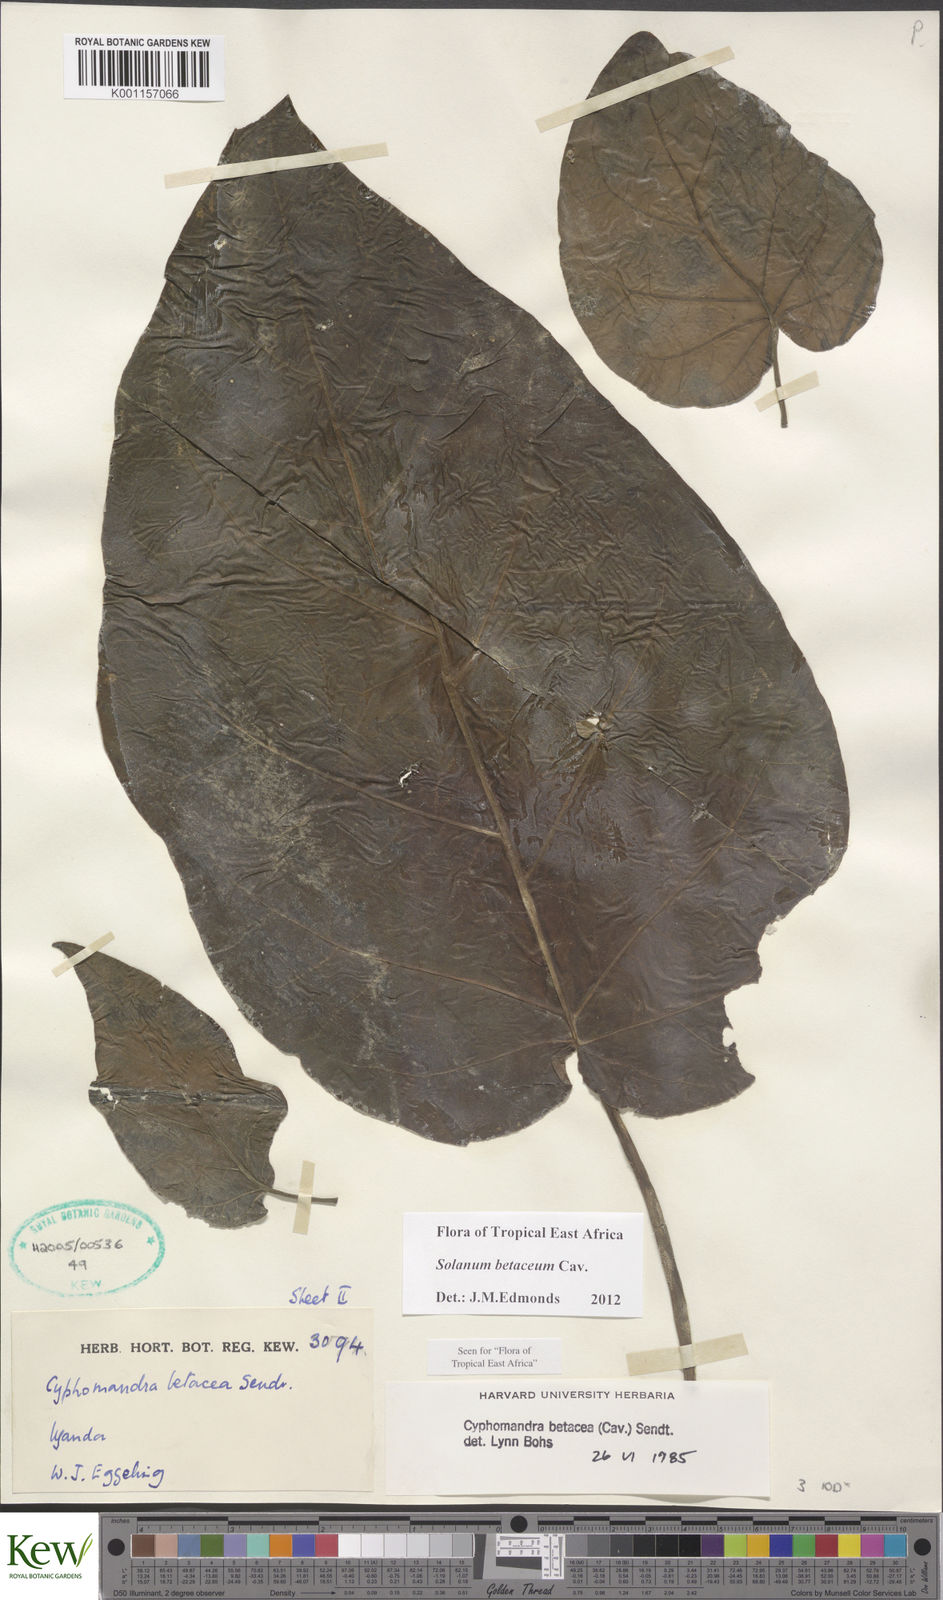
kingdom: Plantae
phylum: Tracheophyta
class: Magnoliopsida
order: Solanales
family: Solanaceae
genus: Solanum
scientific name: Solanum betaceum
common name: Tamarillo
